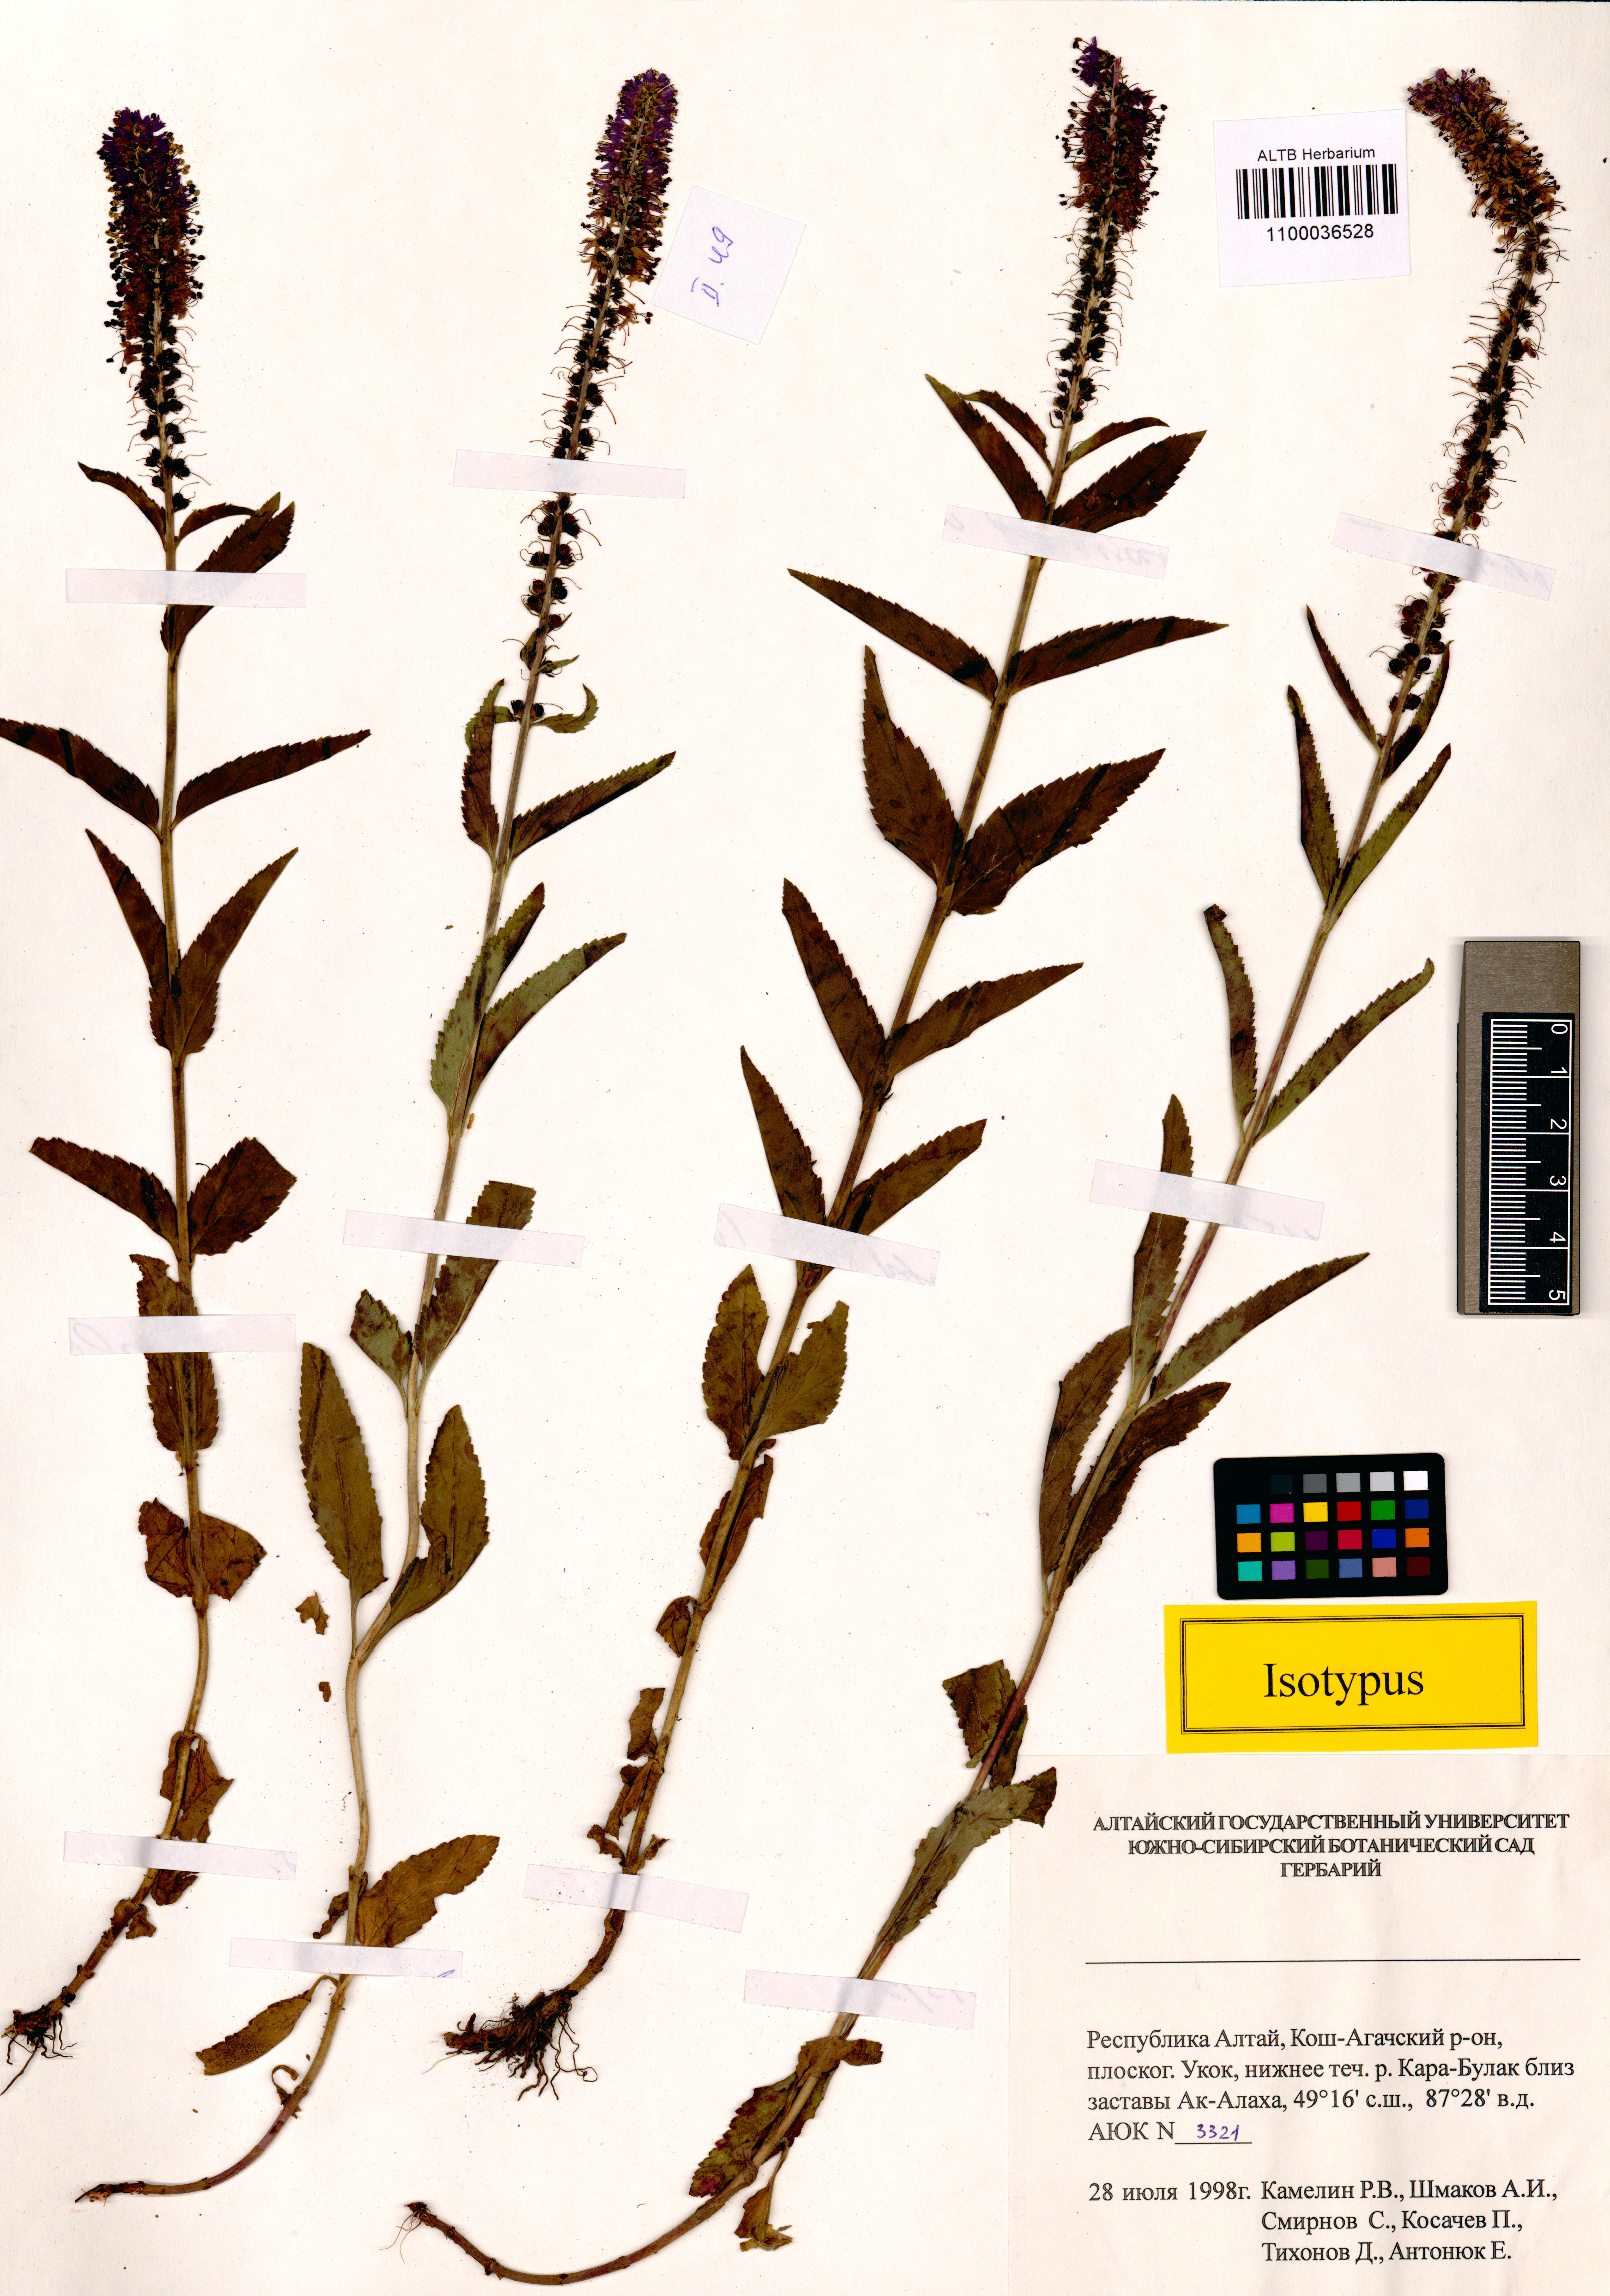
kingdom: Plantae
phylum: Tracheophyta
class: Magnoliopsida
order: Lamiales
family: Plantaginaceae
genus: Veronica
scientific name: Veronica schmakovii
